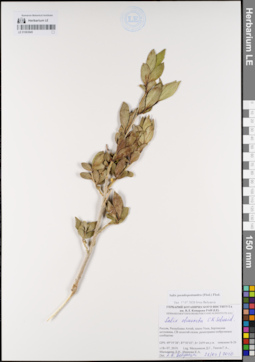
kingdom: Plantae
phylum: Tracheophyta
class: Magnoliopsida
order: Malpighiales
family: Salicaceae
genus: Salix
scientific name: Salix pseudopentandra
